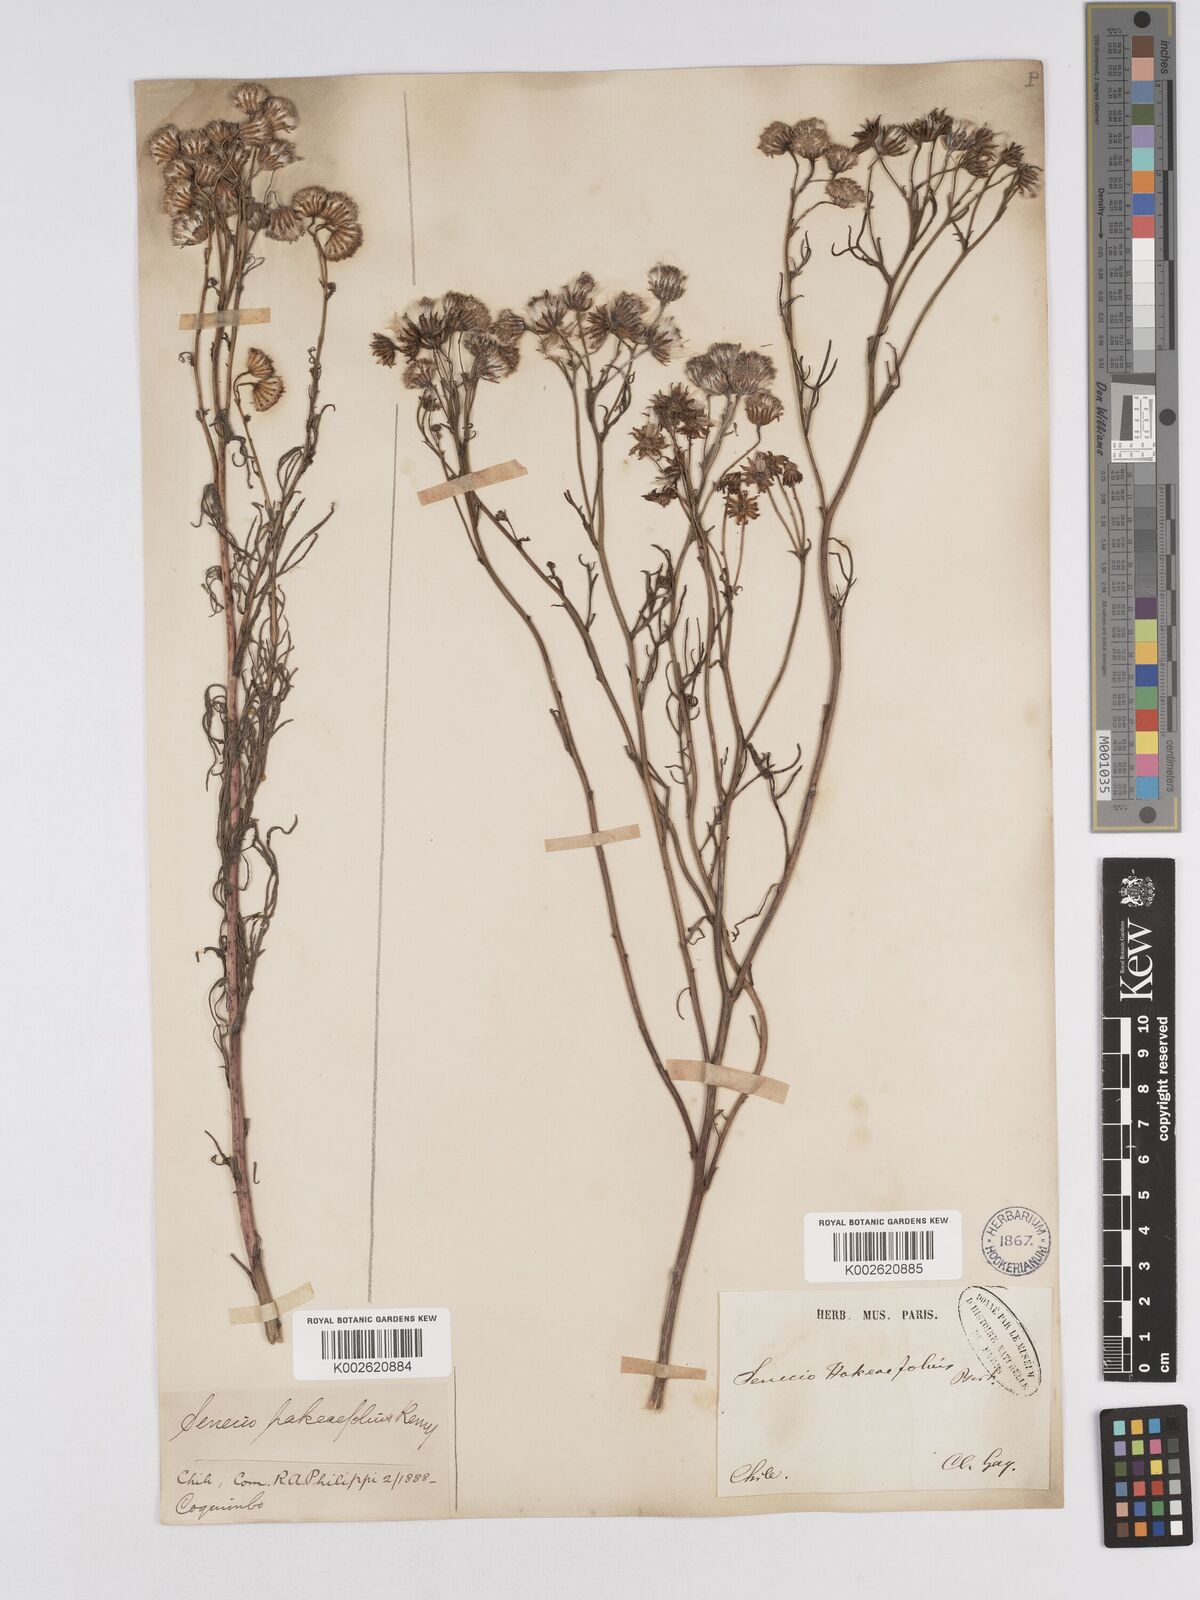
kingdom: Plantae
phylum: Tracheophyta
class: Magnoliopsida
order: Asterales
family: Asteraceae
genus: Senecio
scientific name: Senecio hakeifolius
